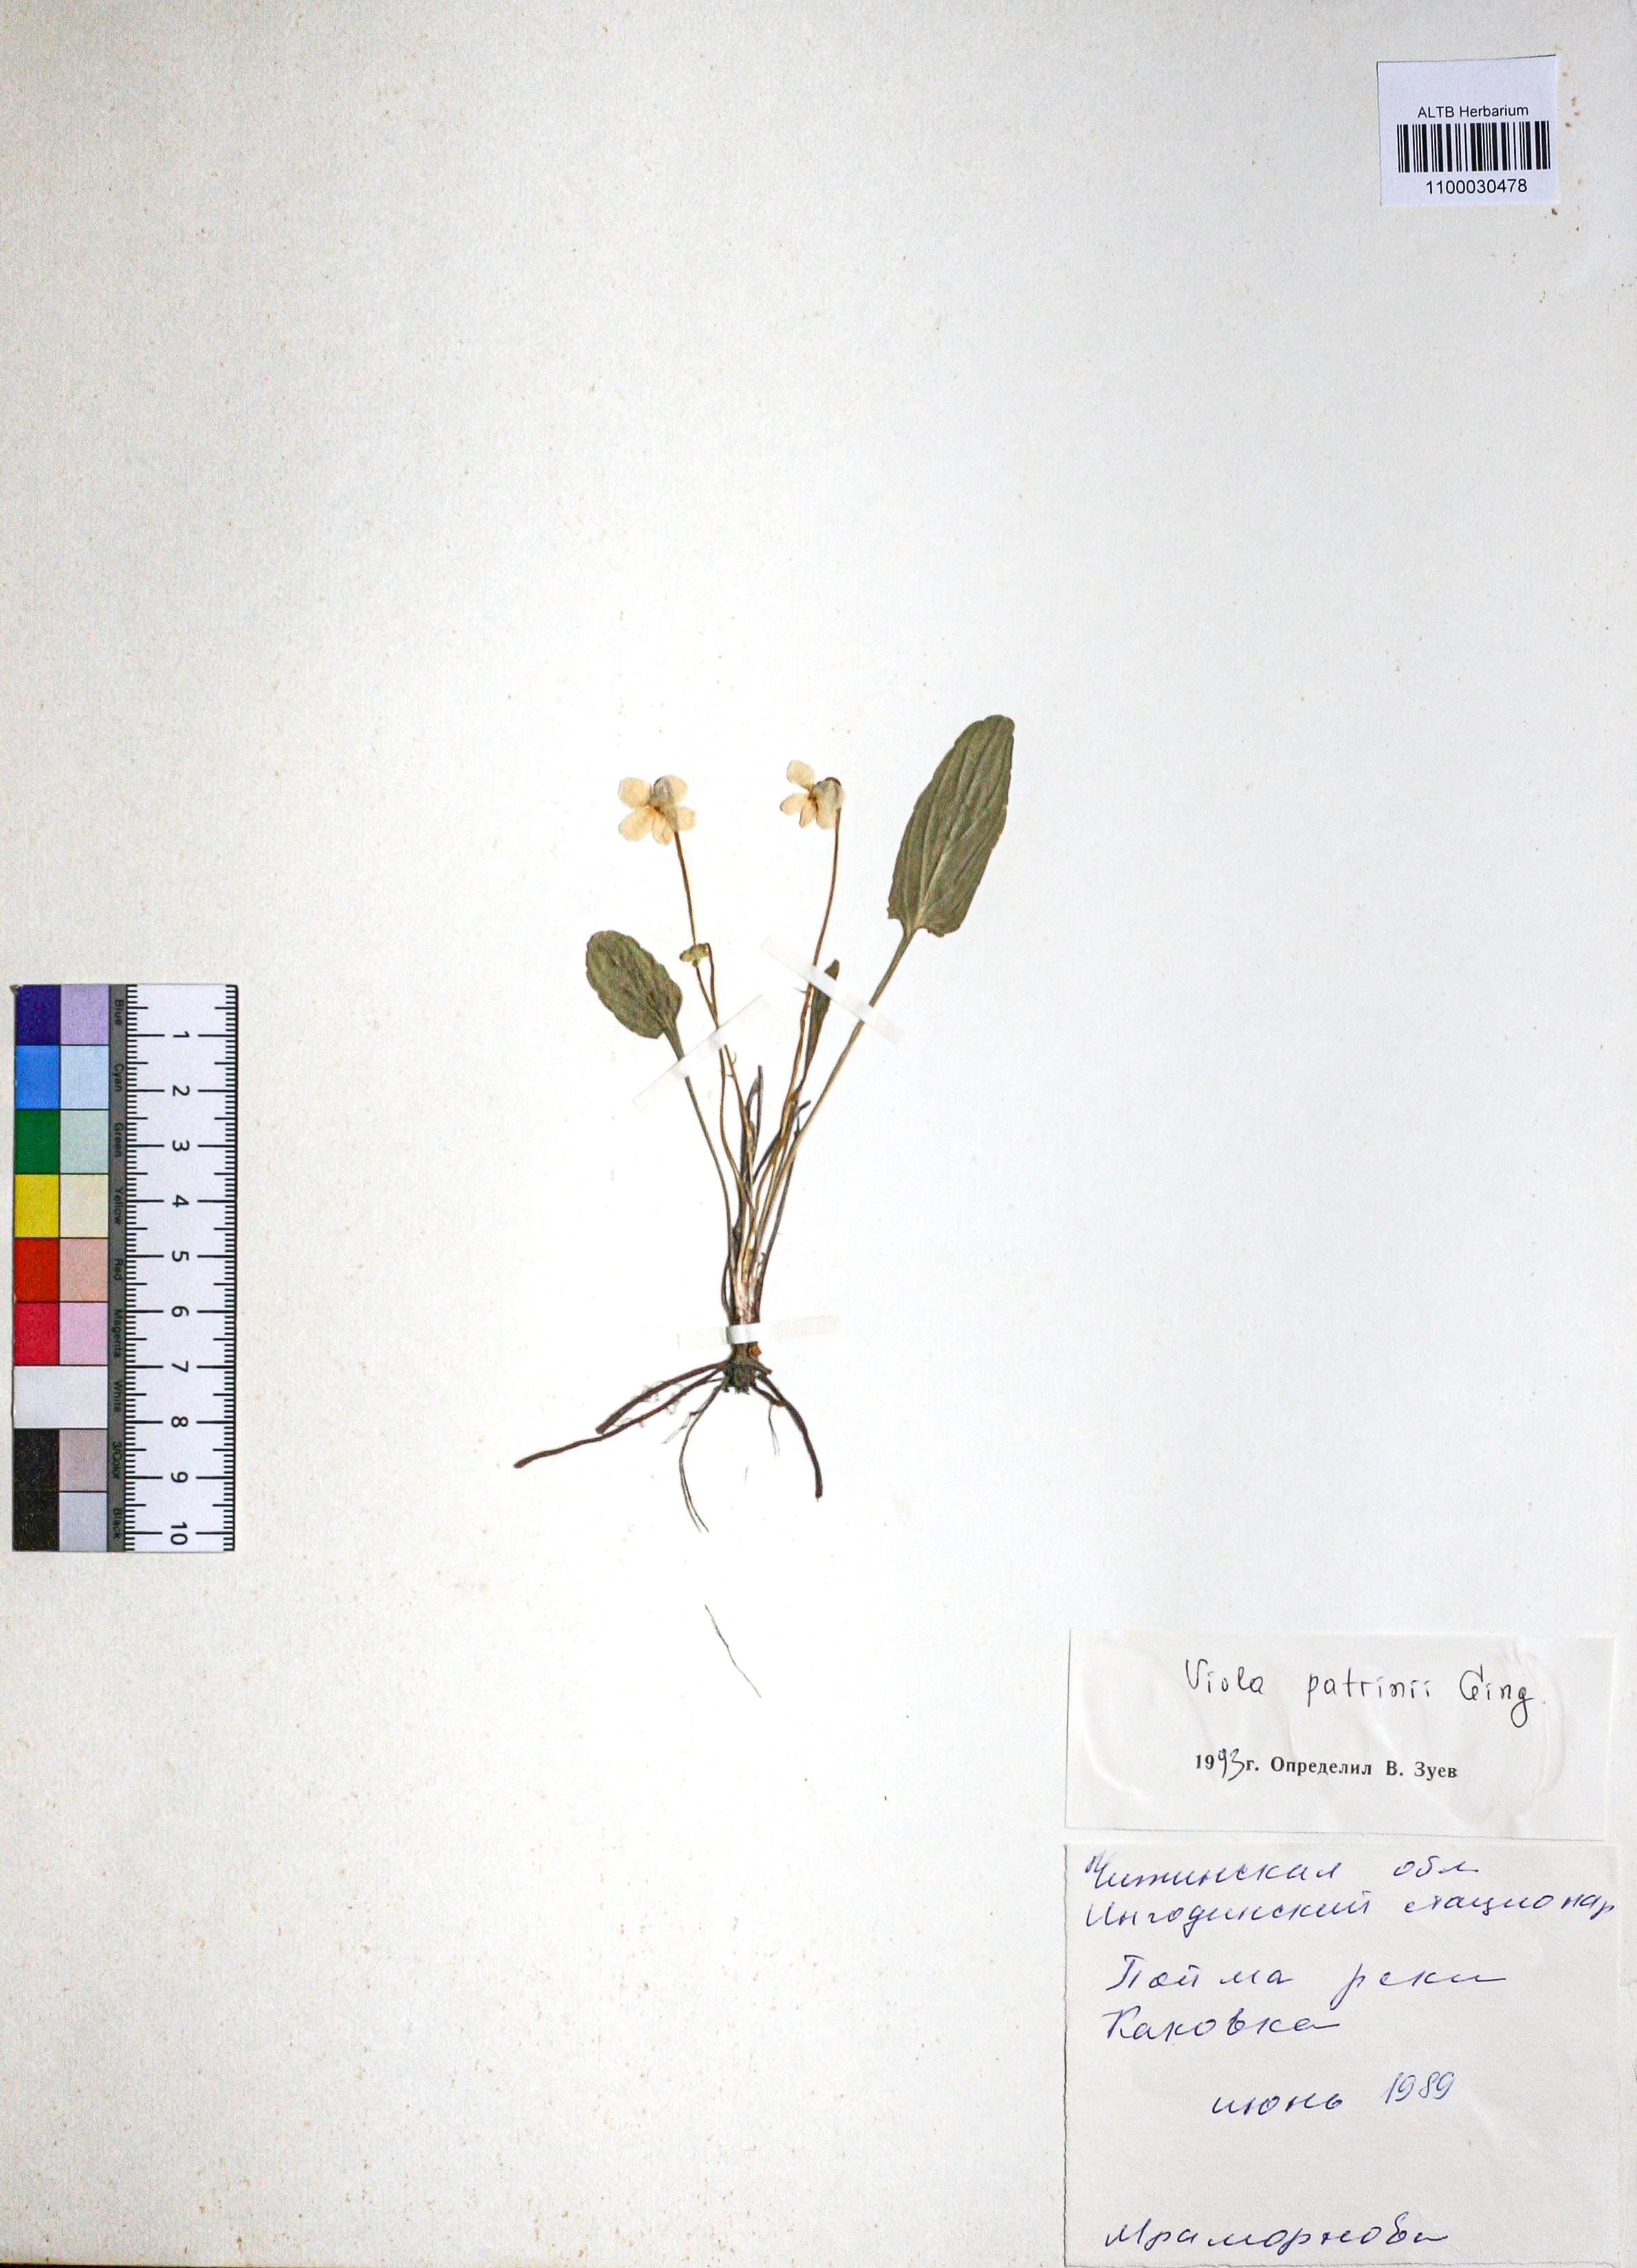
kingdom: Plantae
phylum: Tracheophyta
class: Magnoliopsida
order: Malpighiales
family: Violaceae
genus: Viola
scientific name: Viola patrinii
